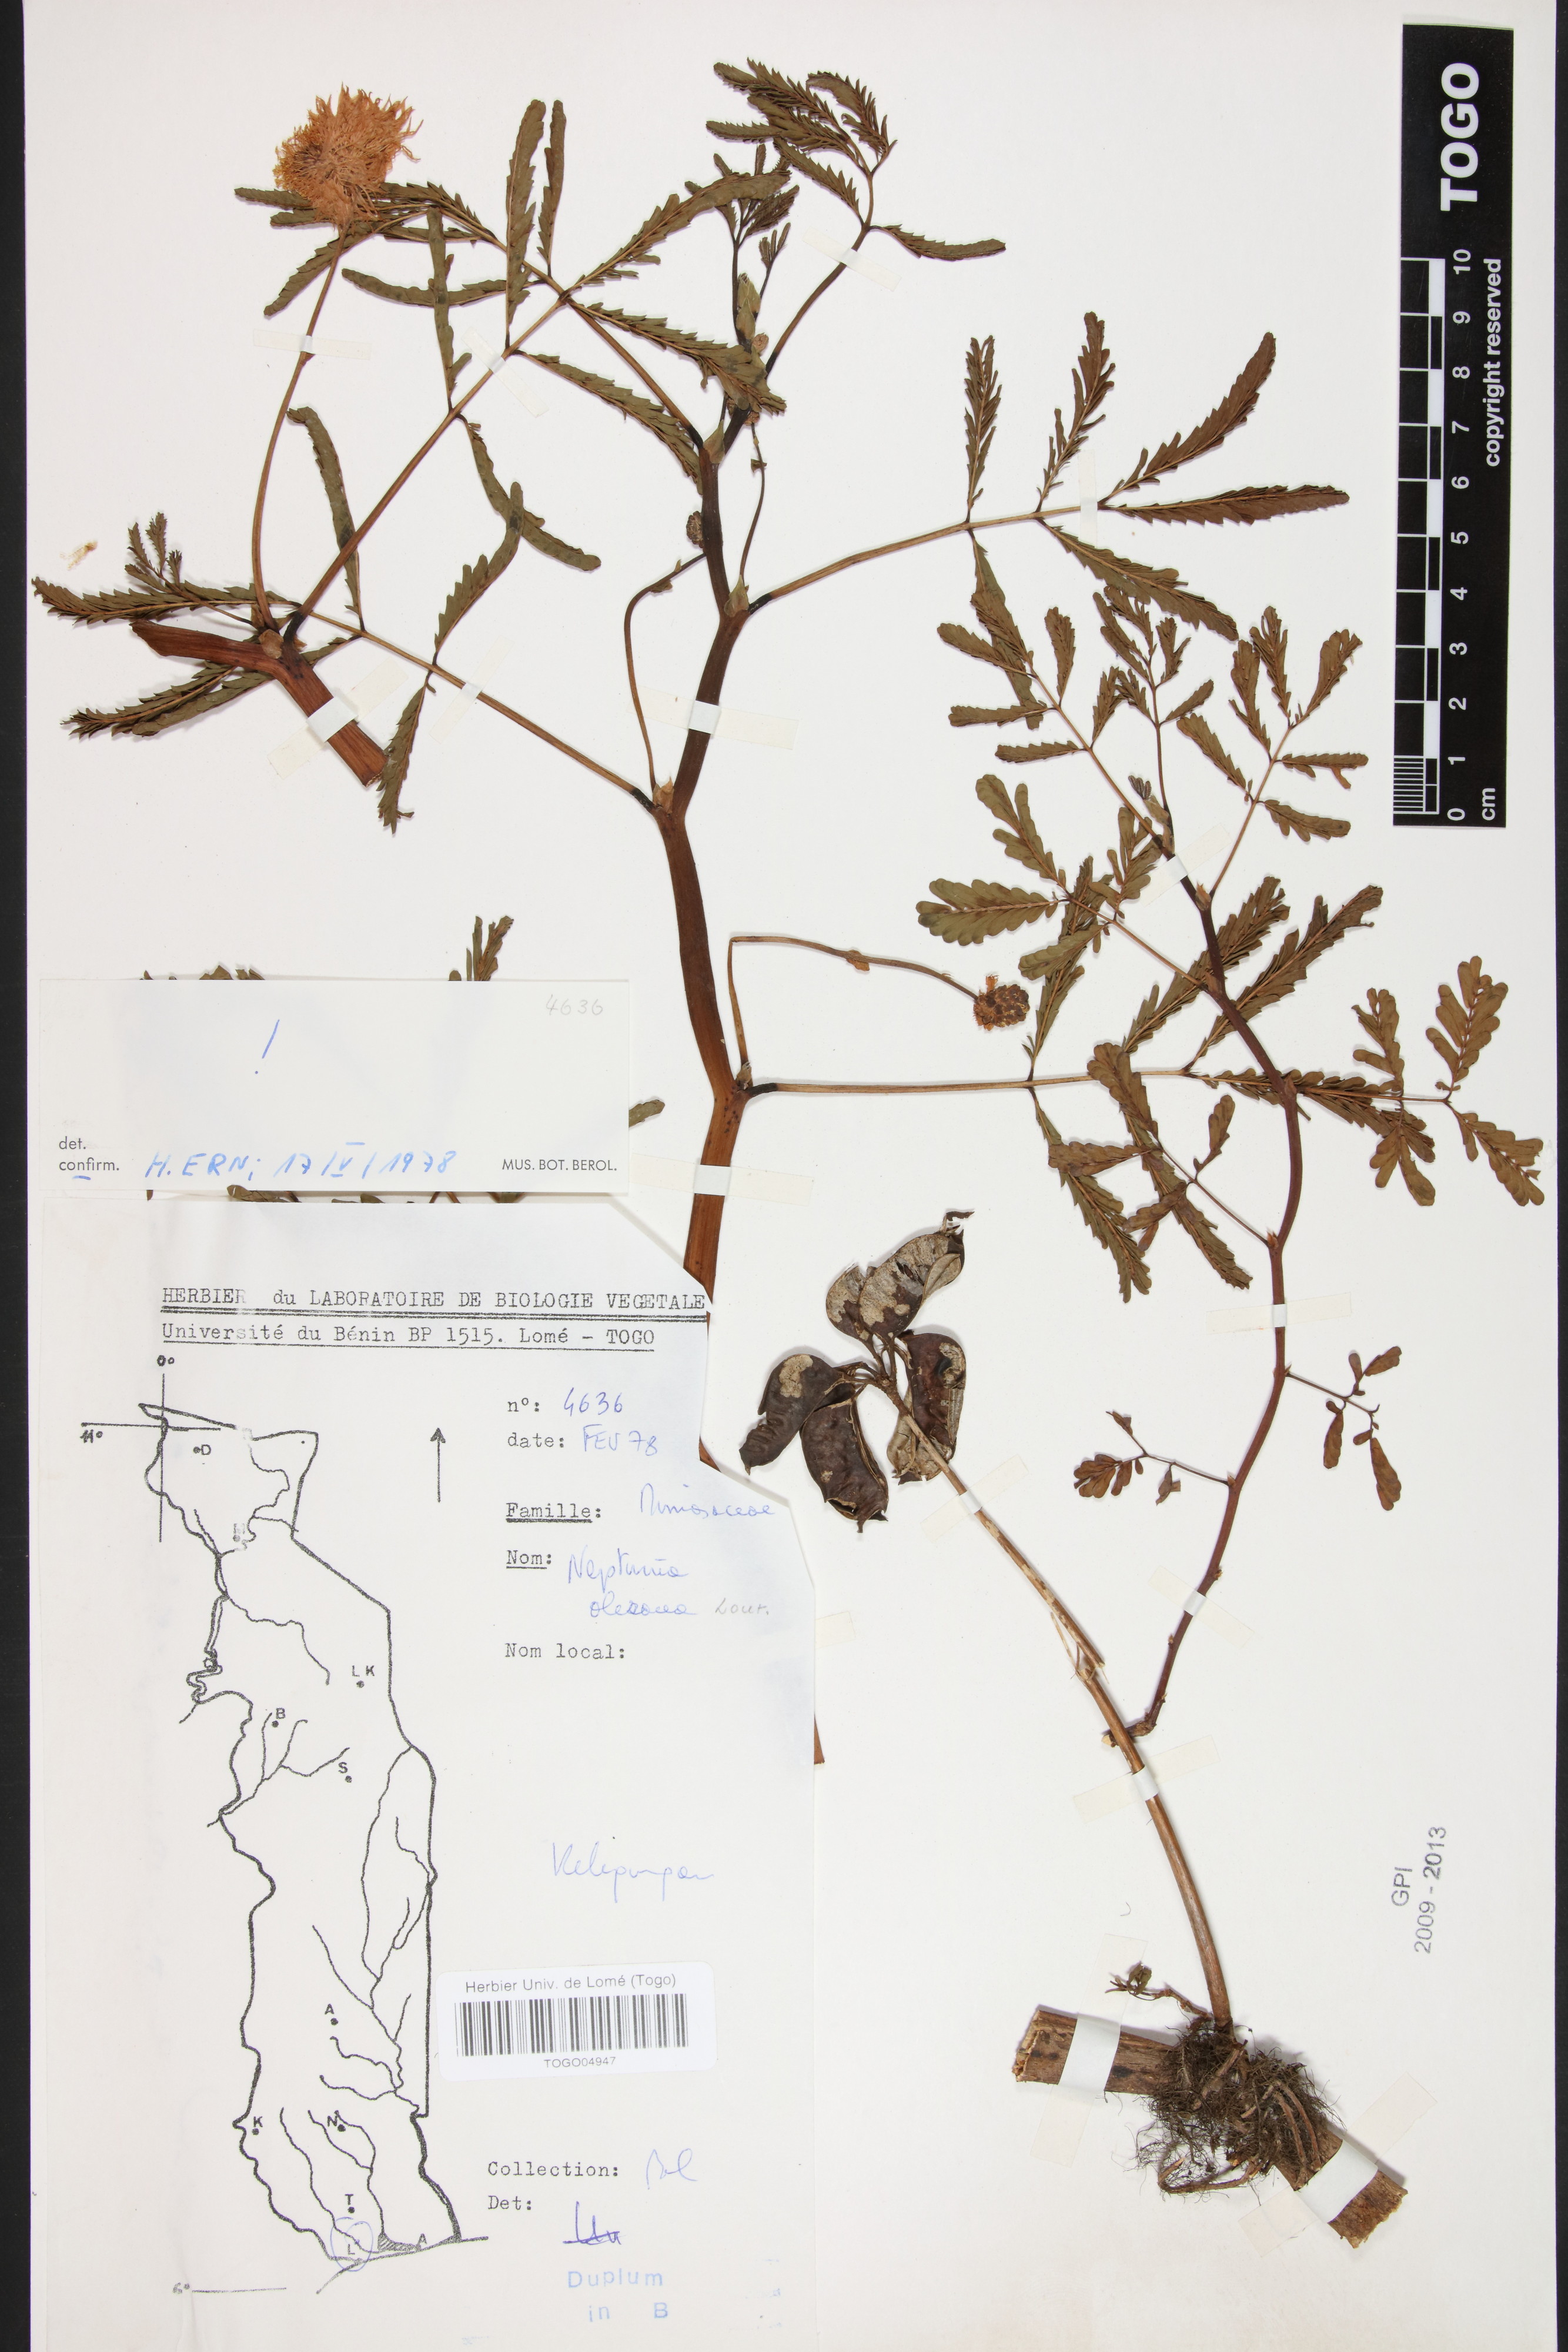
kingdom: Plantae
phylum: Tracheophyta
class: Magnoliopsida
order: Fabales
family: Fabaceae
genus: Neptunia
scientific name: Neptunia prostrata
